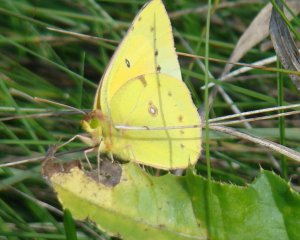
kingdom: Animalia
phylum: Arthropoda
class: Insecta
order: Lepidoptera
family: Pieridae
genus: Colias
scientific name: Colias eurytheme
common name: Orange Sulphur
